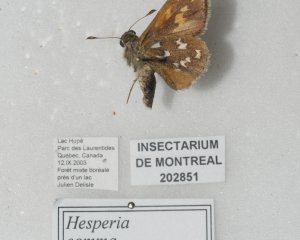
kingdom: Animalia
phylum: Arthropoda
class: Insecta
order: Lepidoptera
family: Hesperiidae
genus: Hesperia
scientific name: Hesperia comma
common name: Common Branded Skipper
